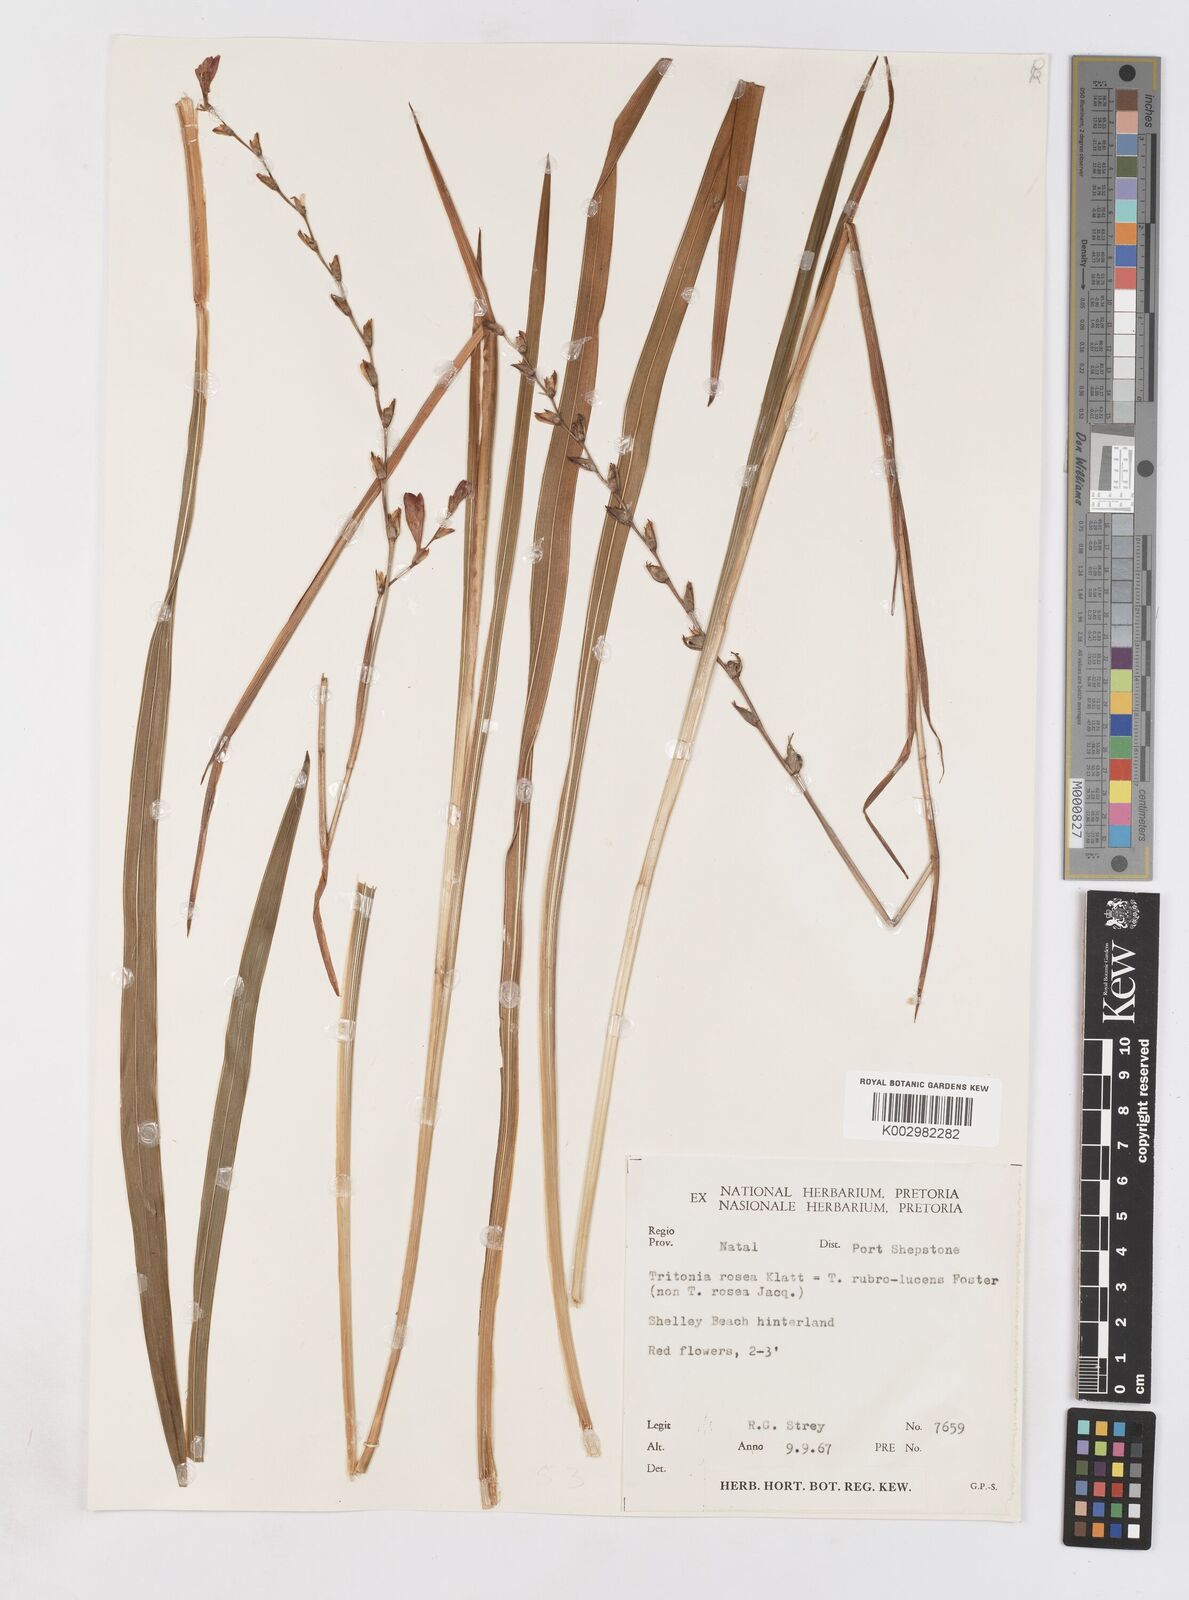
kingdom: Plantae
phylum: Tracheophyta
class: Liliopsida
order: Asparagales
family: Iridaceae
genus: Tritonia
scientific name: Tritonia disticha
